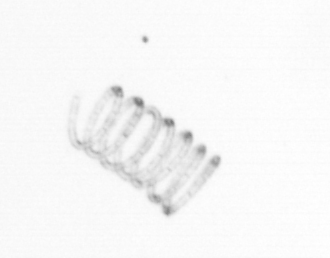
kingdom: Chromista
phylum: Ochrophyta
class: Bacillariophyceae
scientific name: Bacillariophyceae
